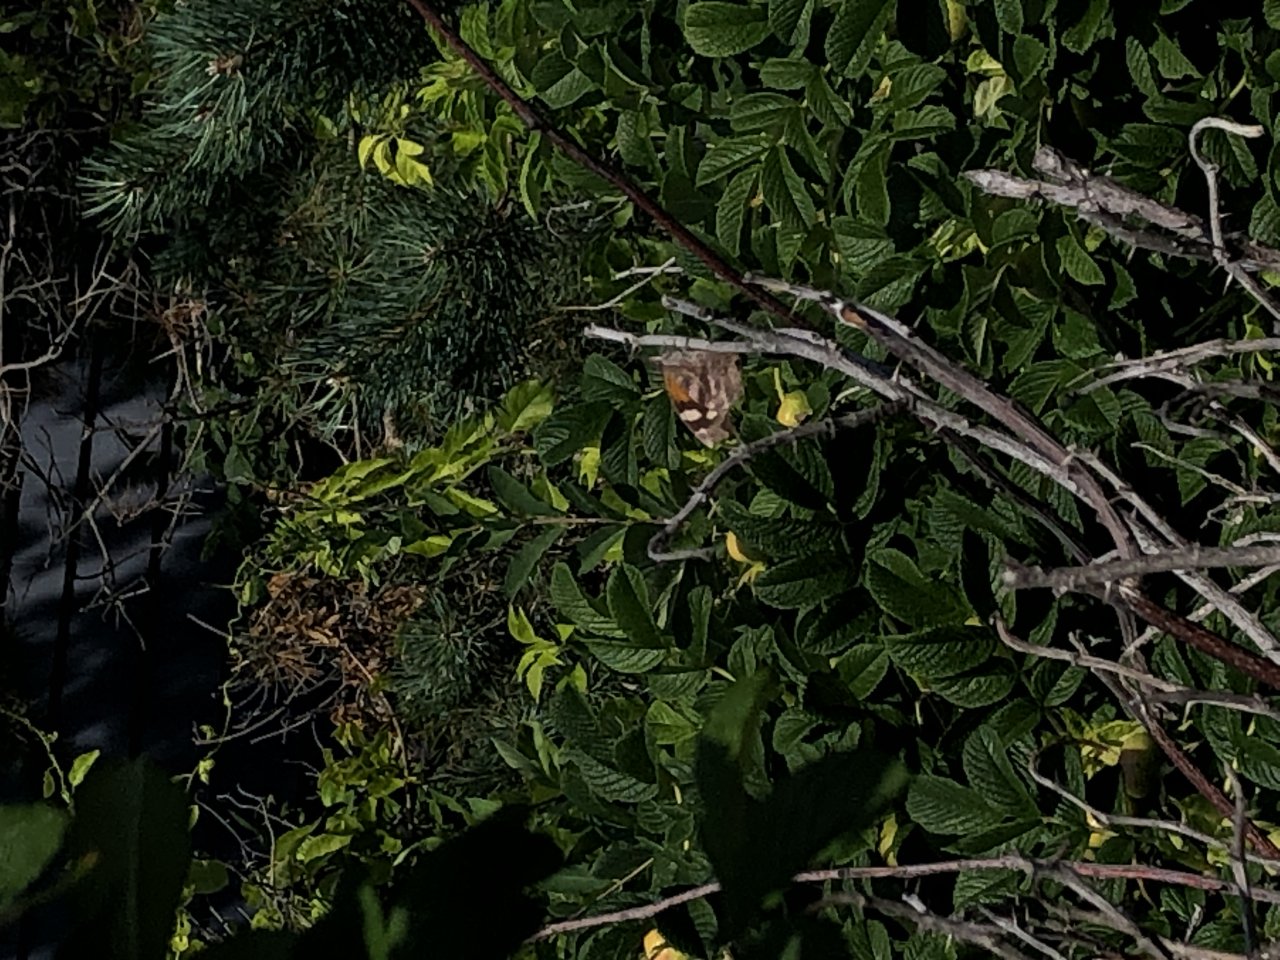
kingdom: Animalia
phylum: Arthropoda
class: Insecta
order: Lepidoptera
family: Nymphalidae
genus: Libytheana
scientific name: Libytheana carinenta
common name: American Snout
